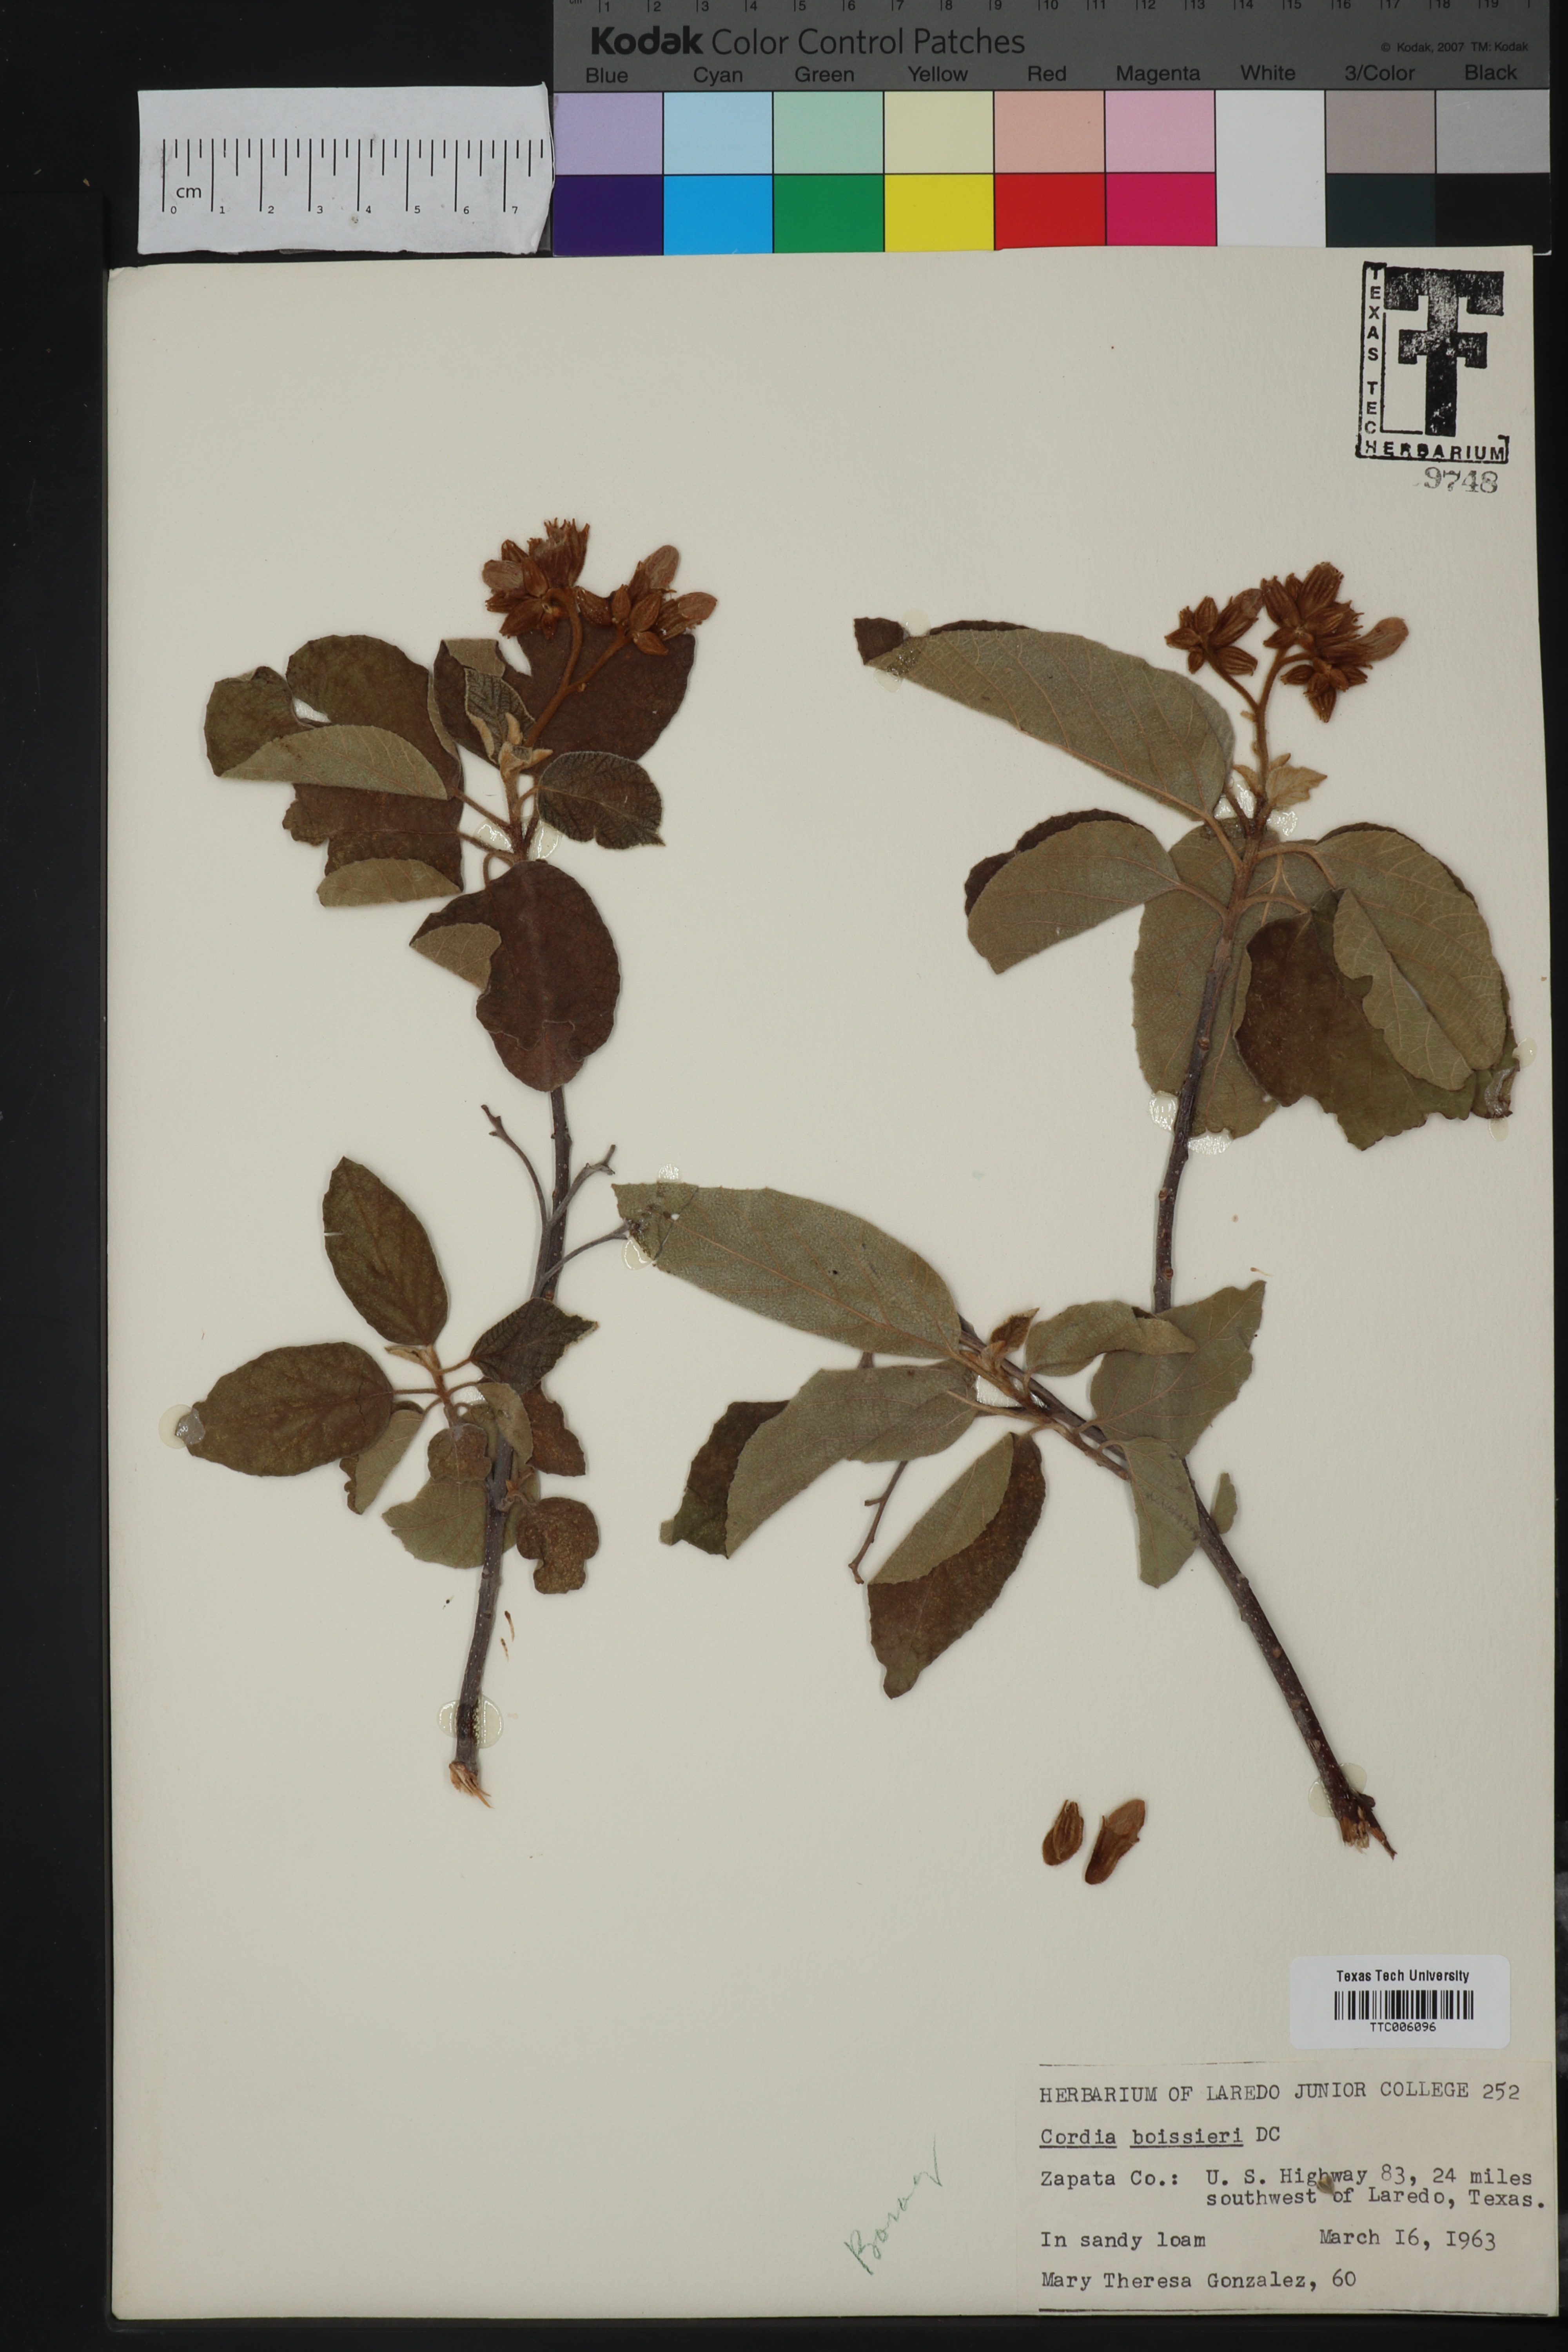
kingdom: Plantae
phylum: Tracheophyta
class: Magnoliopsida
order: Boraginales
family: Cordiaceae
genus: Cordia
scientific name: Cordia boissieri
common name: Mexican-olive
